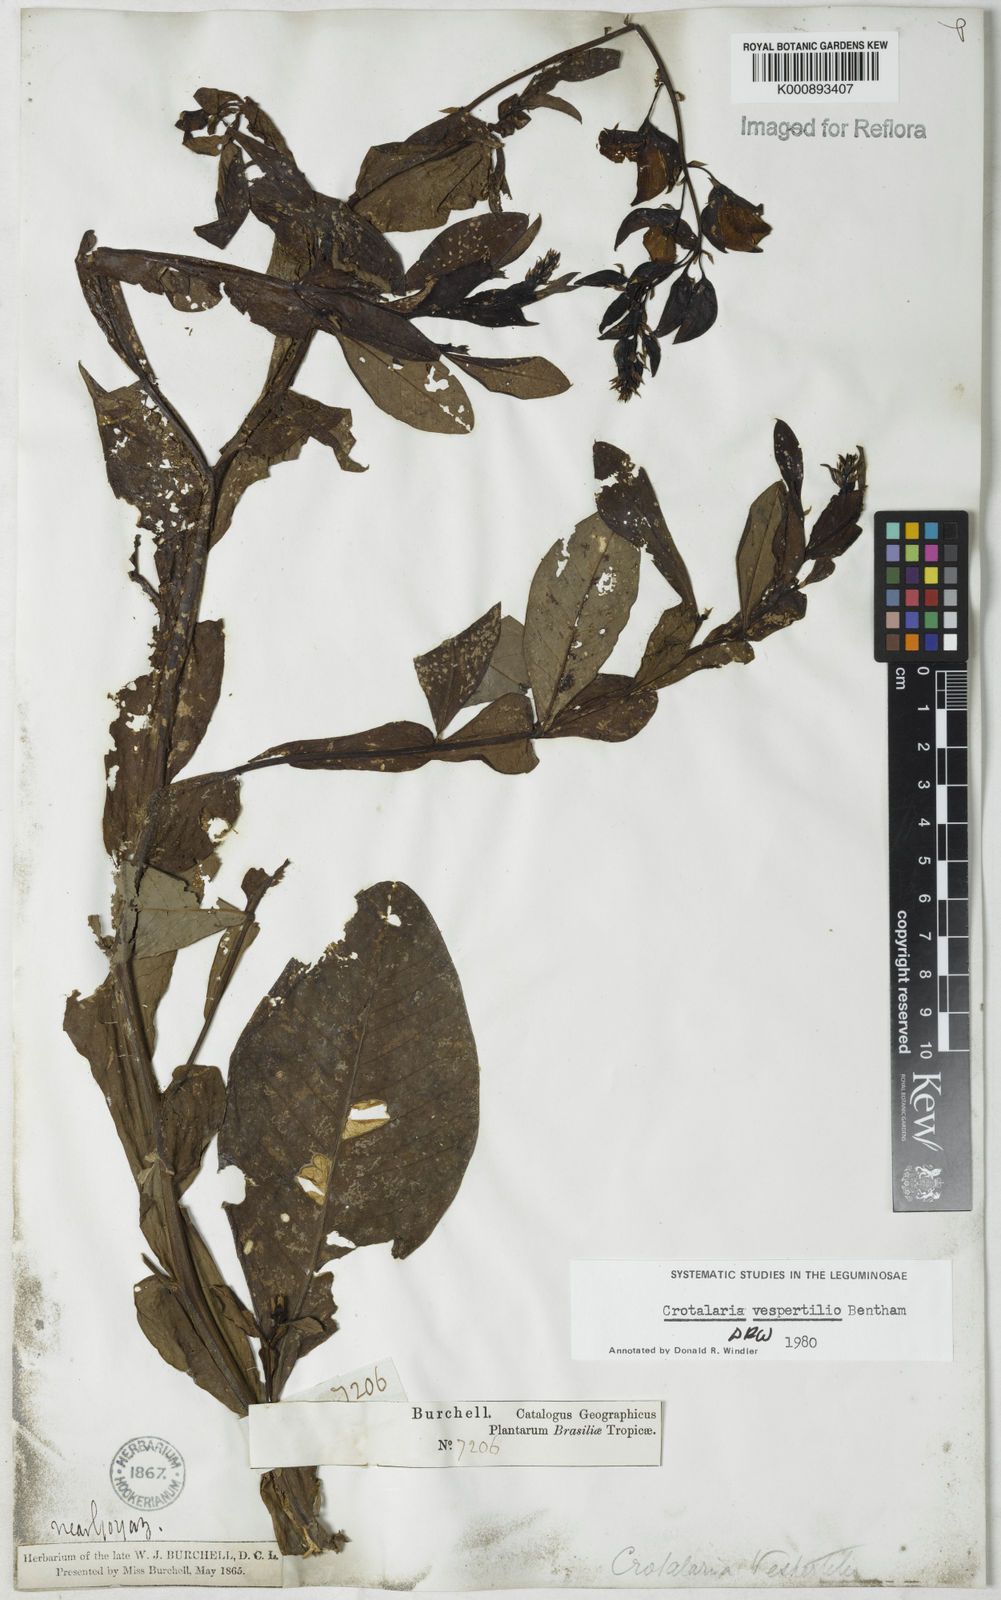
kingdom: Plantae
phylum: Tracheophyta
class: Magnoliopsida
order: Fabales
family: Fabaceae
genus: Crotalaria
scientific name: Crotalaria vespertilio
